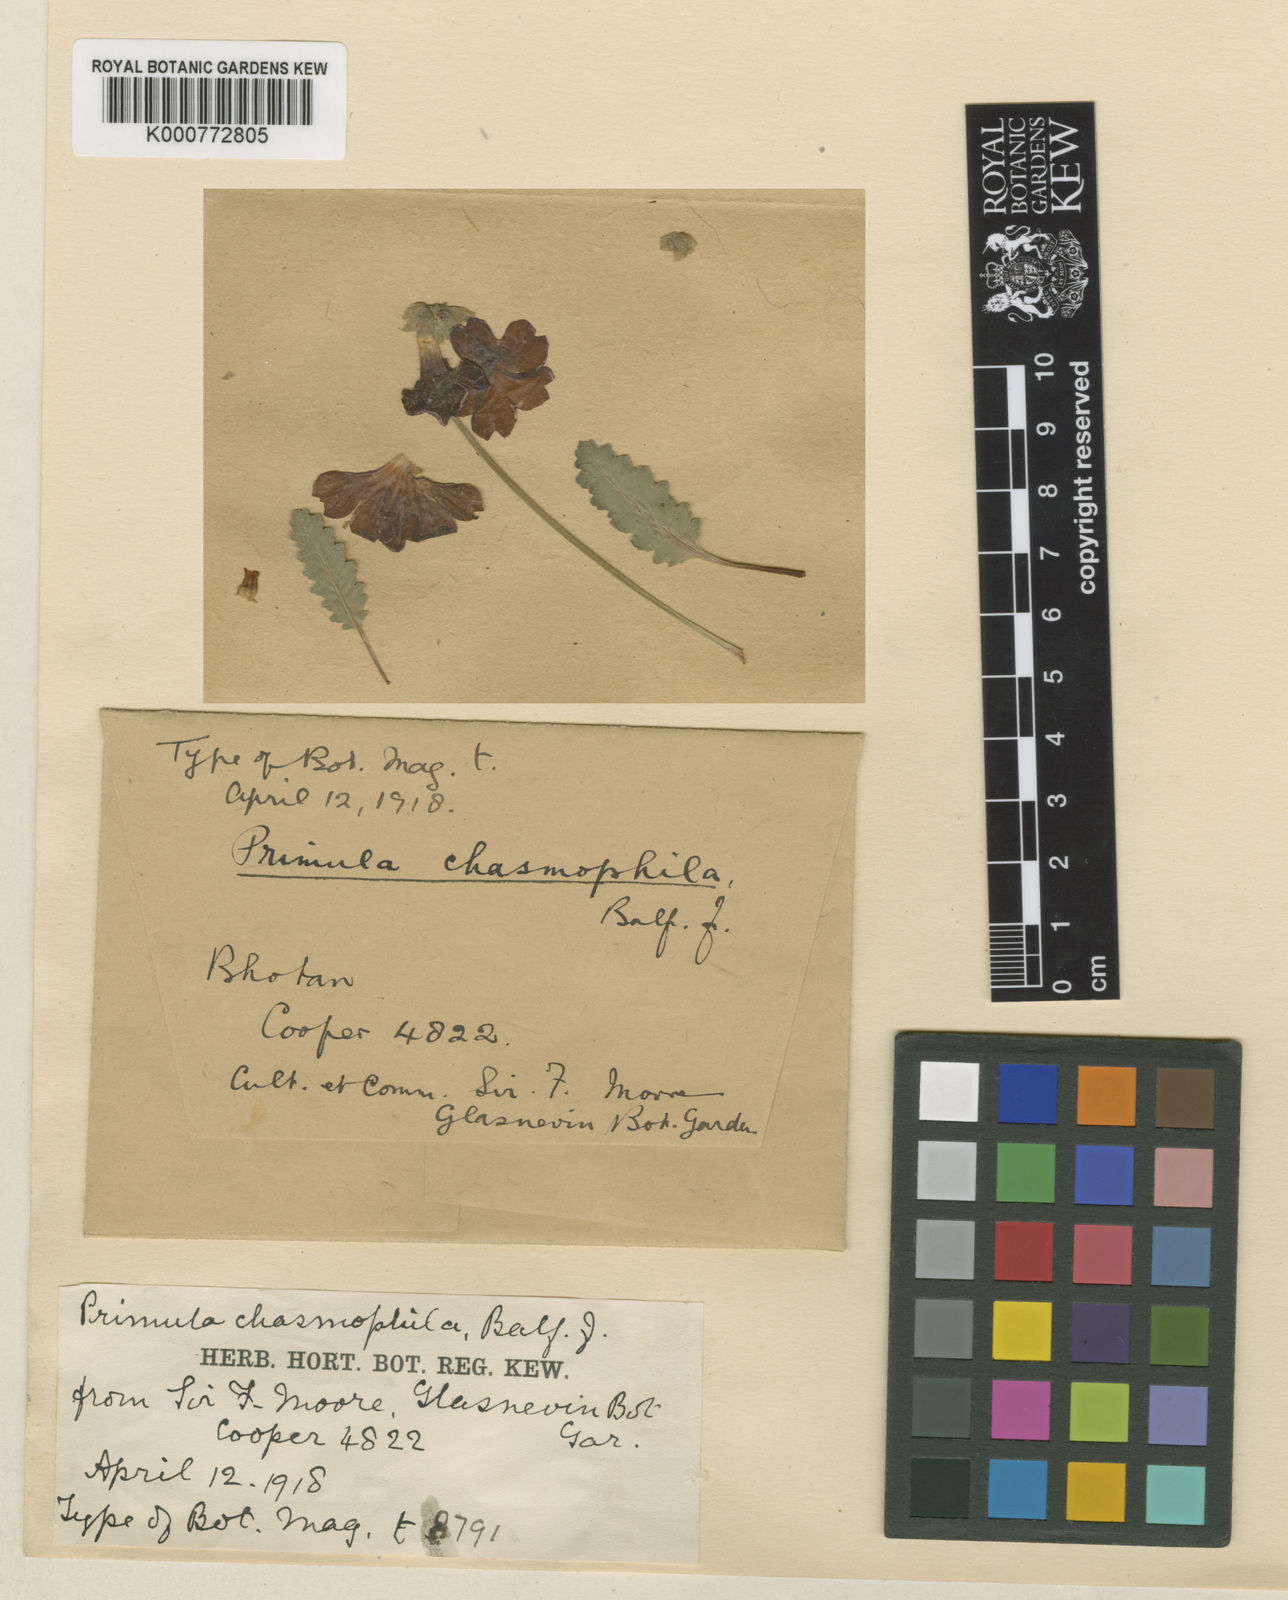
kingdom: Plantae
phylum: Tracheophyta
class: Magnoliopsida
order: Ericales
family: Primulaceae
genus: Primula
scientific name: Primula
